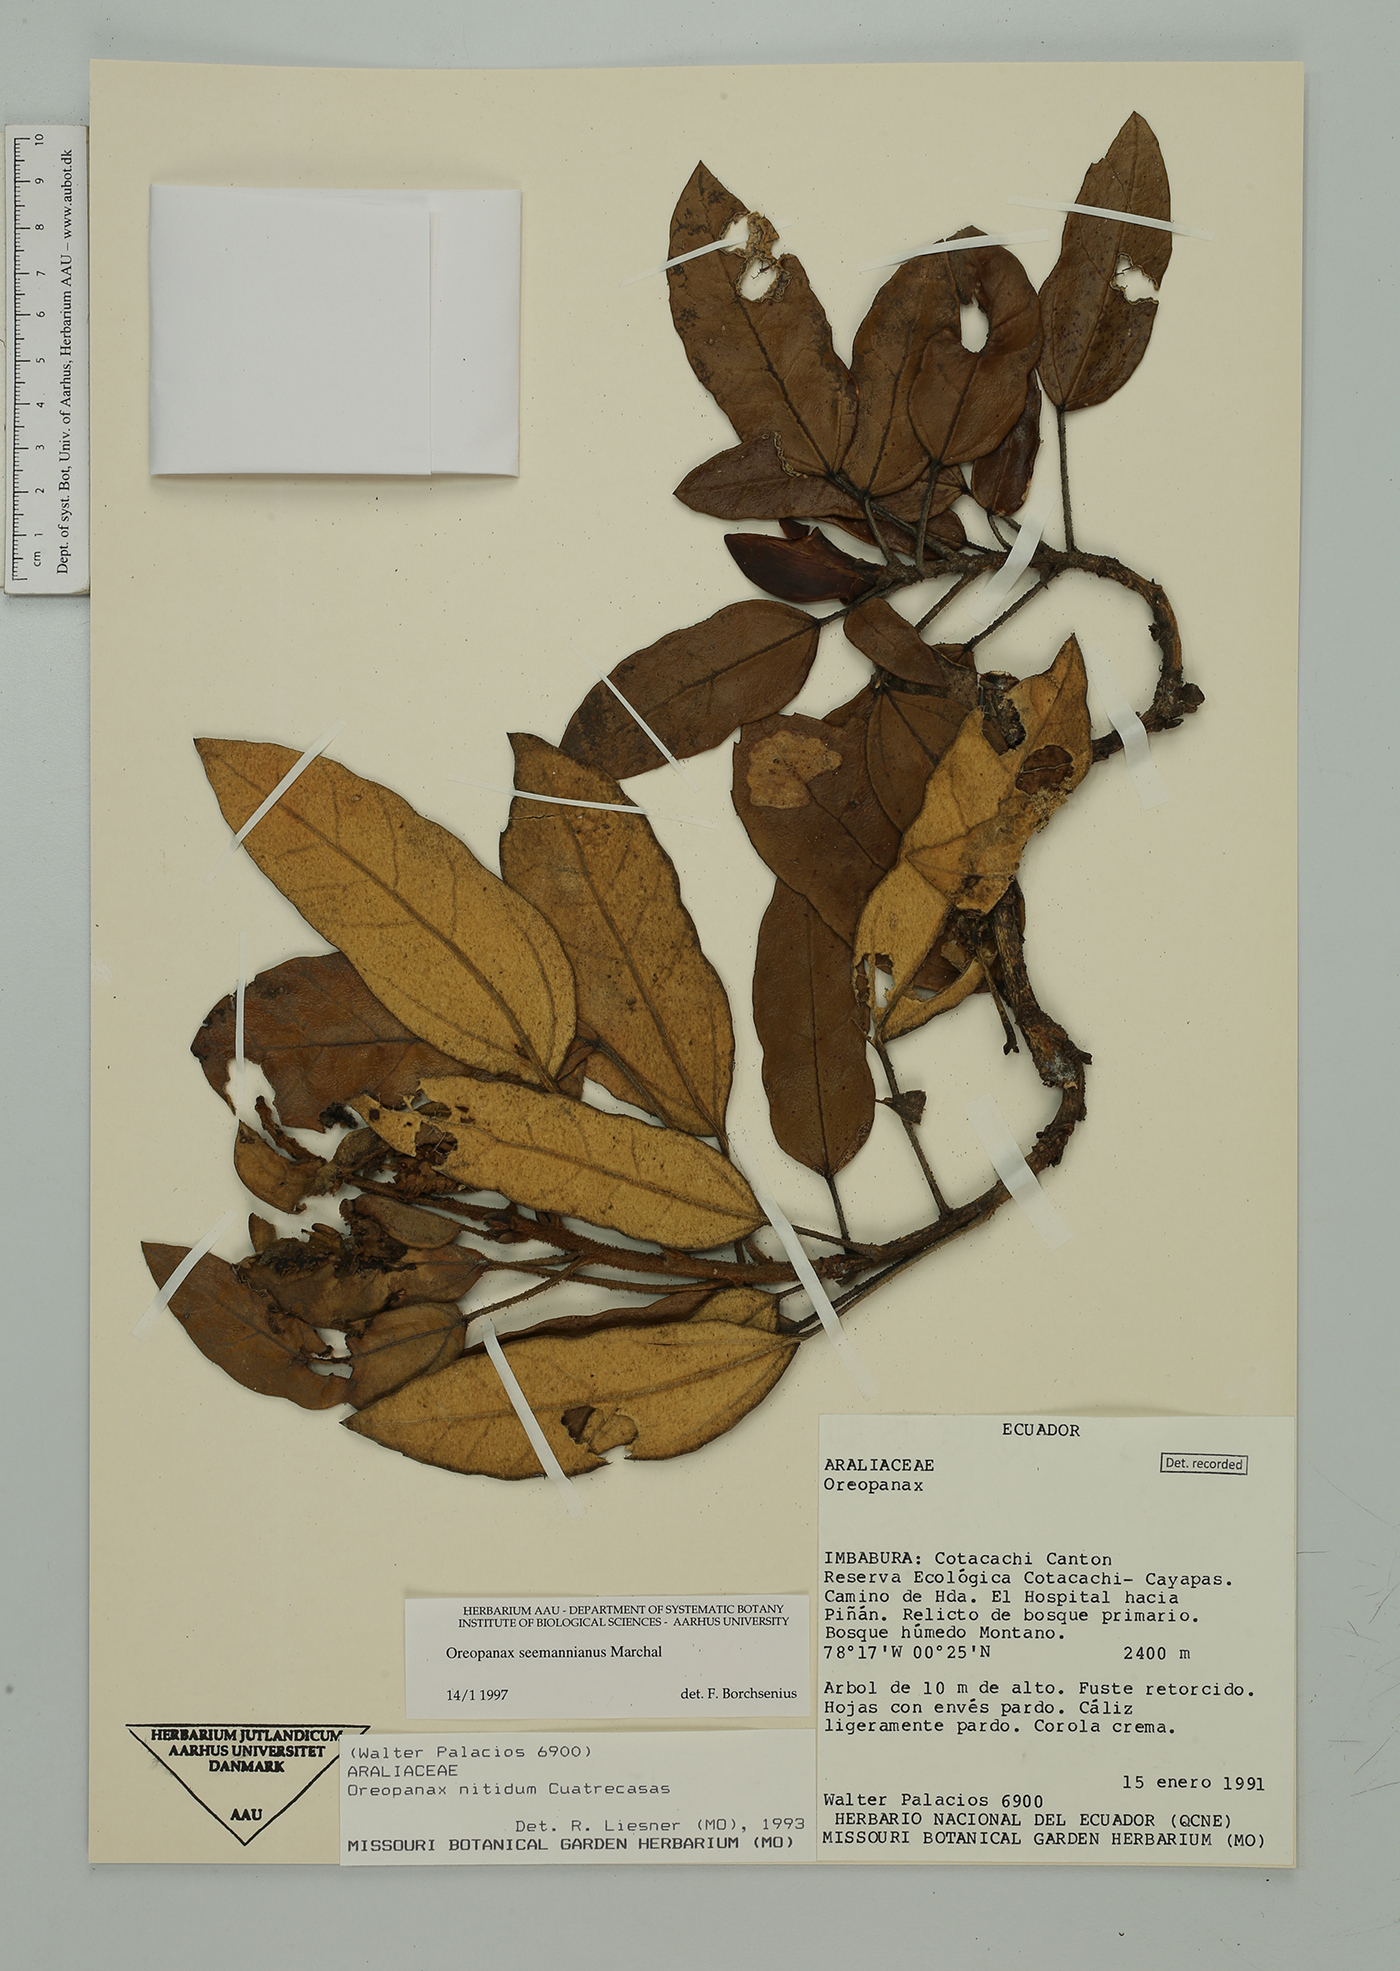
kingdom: Plantae
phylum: Tracheophyta
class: Magnoliopsida
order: Apiales
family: Araliaceae
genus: Oreopanax
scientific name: Oreopanax seemannianus
